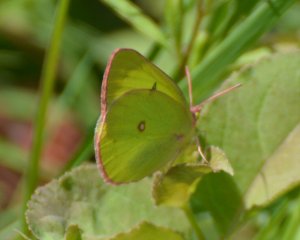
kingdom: Animalia
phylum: Arthropoda
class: Insecta
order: Lepidoptera
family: Pieridae
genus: Colias
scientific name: Colias interior
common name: Pink-edged Sulphur
